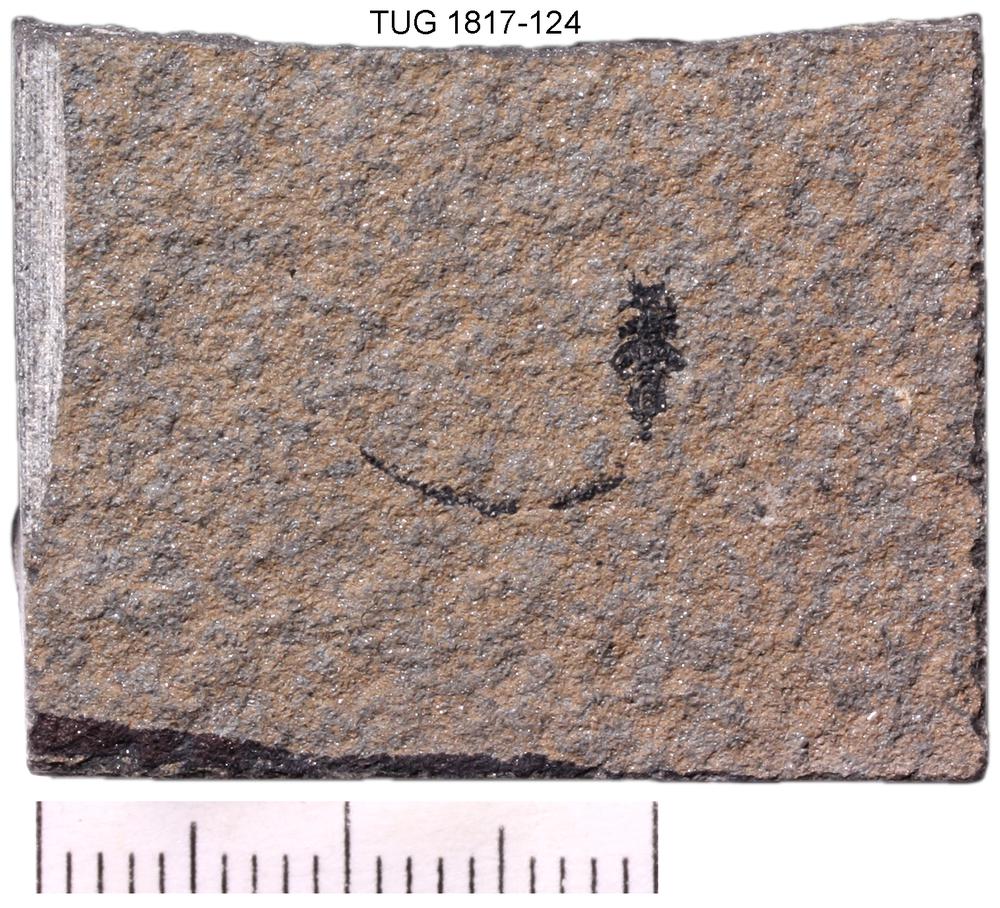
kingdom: Animalia
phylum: Chordata
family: Dipteridae
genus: Palaeospondylus
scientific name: Palaeospondylus
